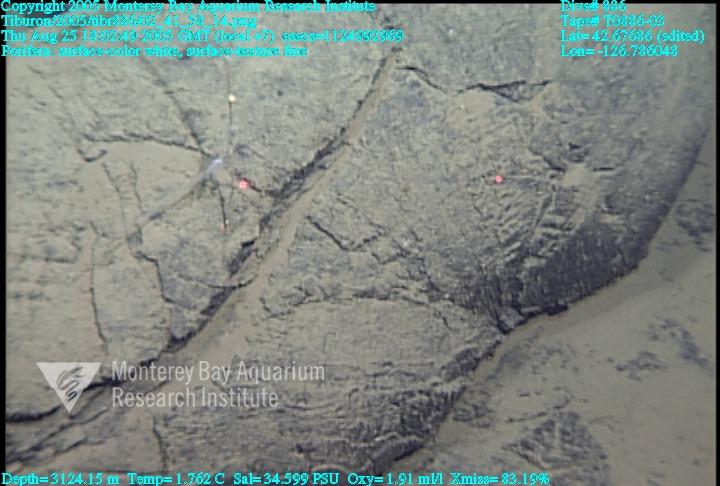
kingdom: Animalia
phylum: Porifera
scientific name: Porifera
